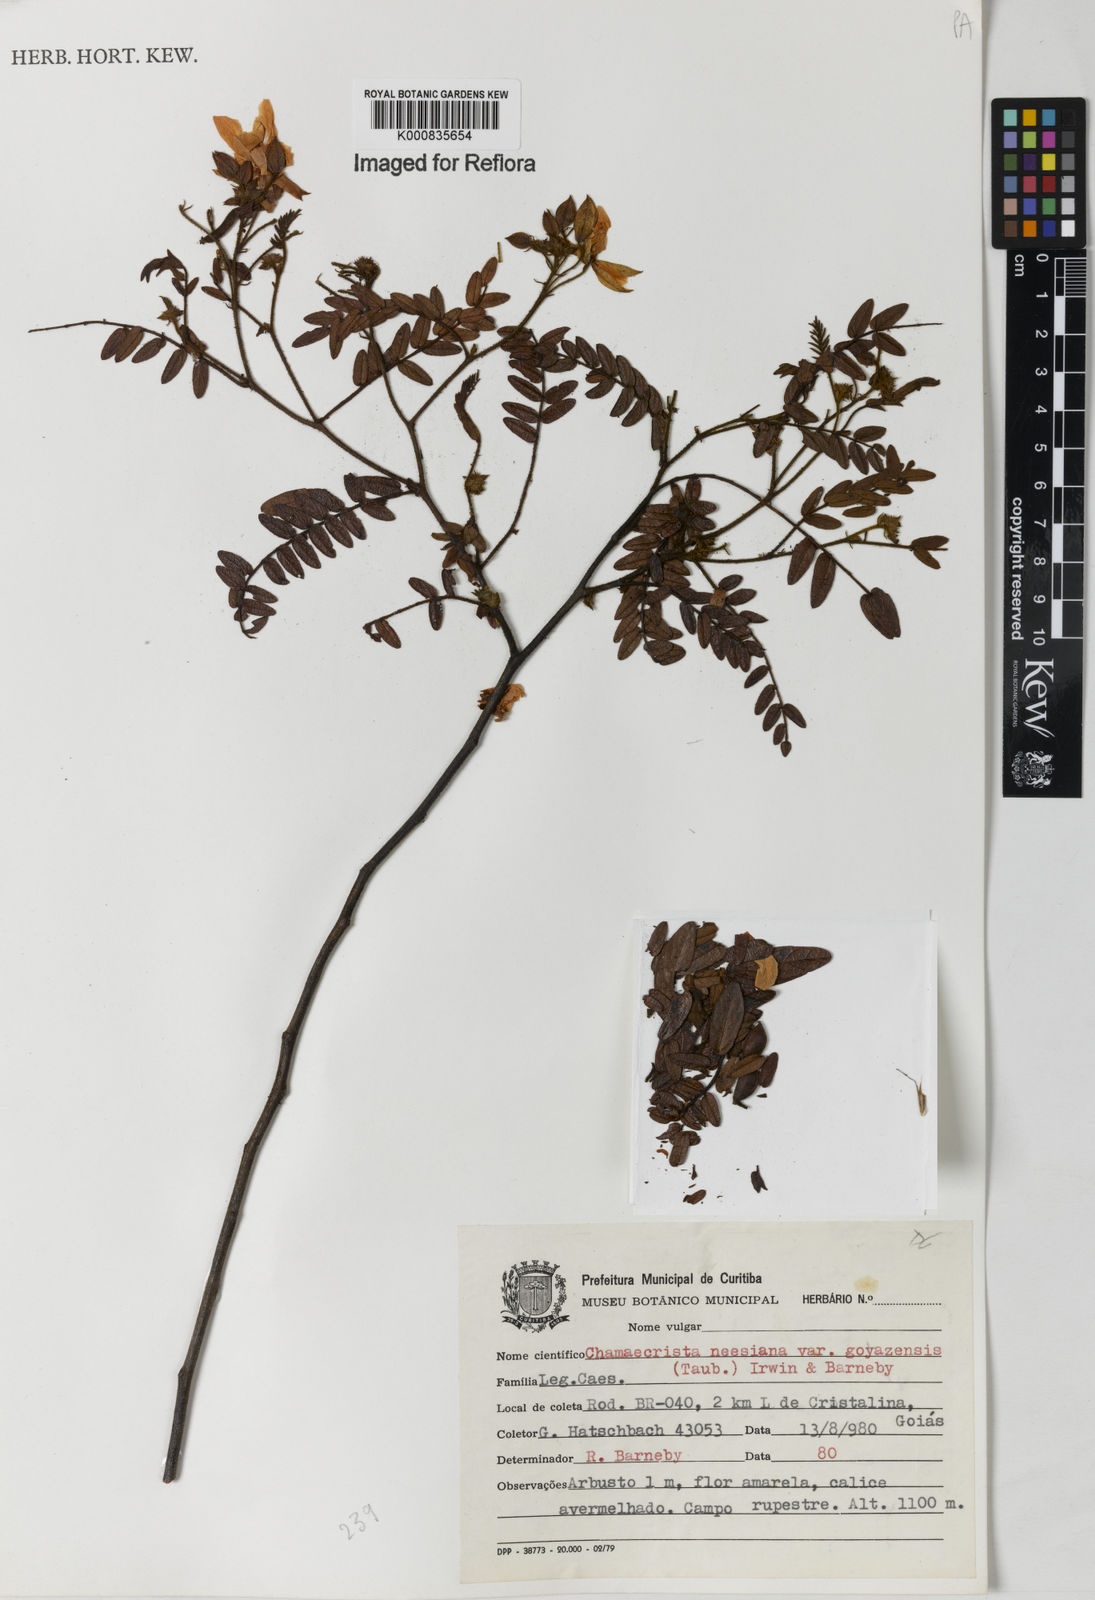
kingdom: Plantae
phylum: Tracheophyta
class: Magnoliopsida
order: Fabales
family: Fabaceae
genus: Chamaecrista
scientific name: Chamaecrista neesiana
